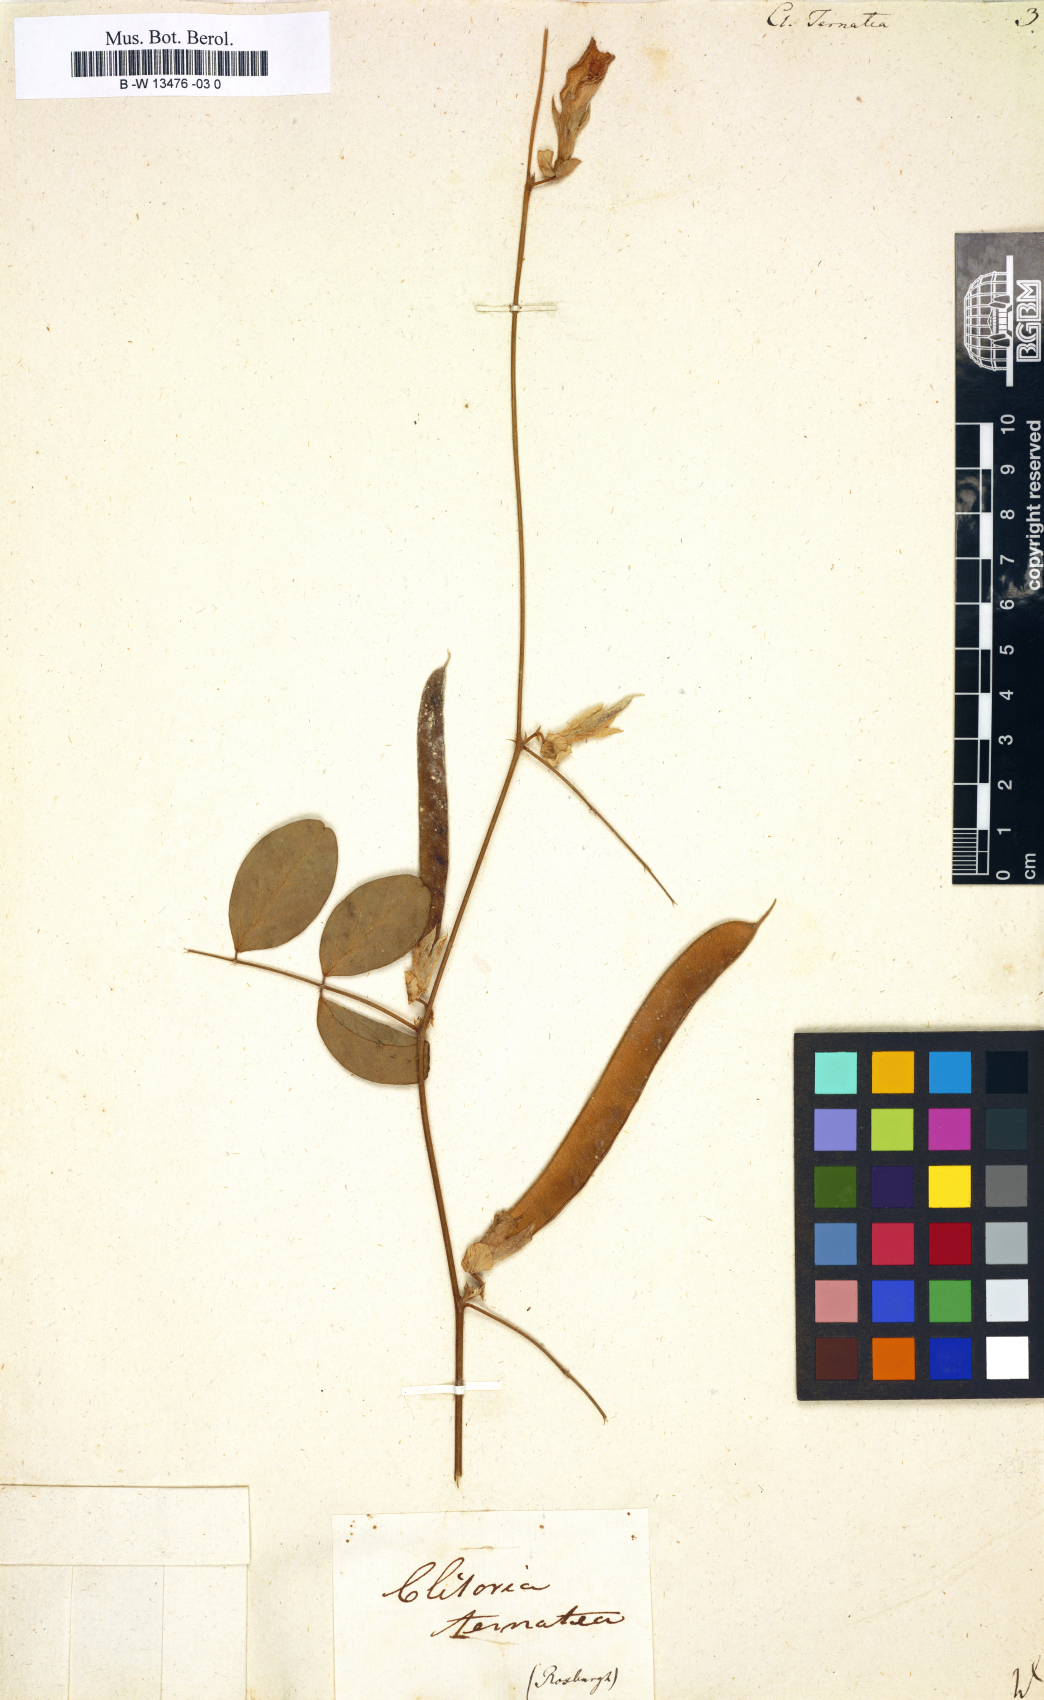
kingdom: Plantae
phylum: Tracheophyta
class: Magnoliopsida
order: Fabales
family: Fabaceae
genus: Clitoria
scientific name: Clitoria ternatea
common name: Asian pigeonwings
